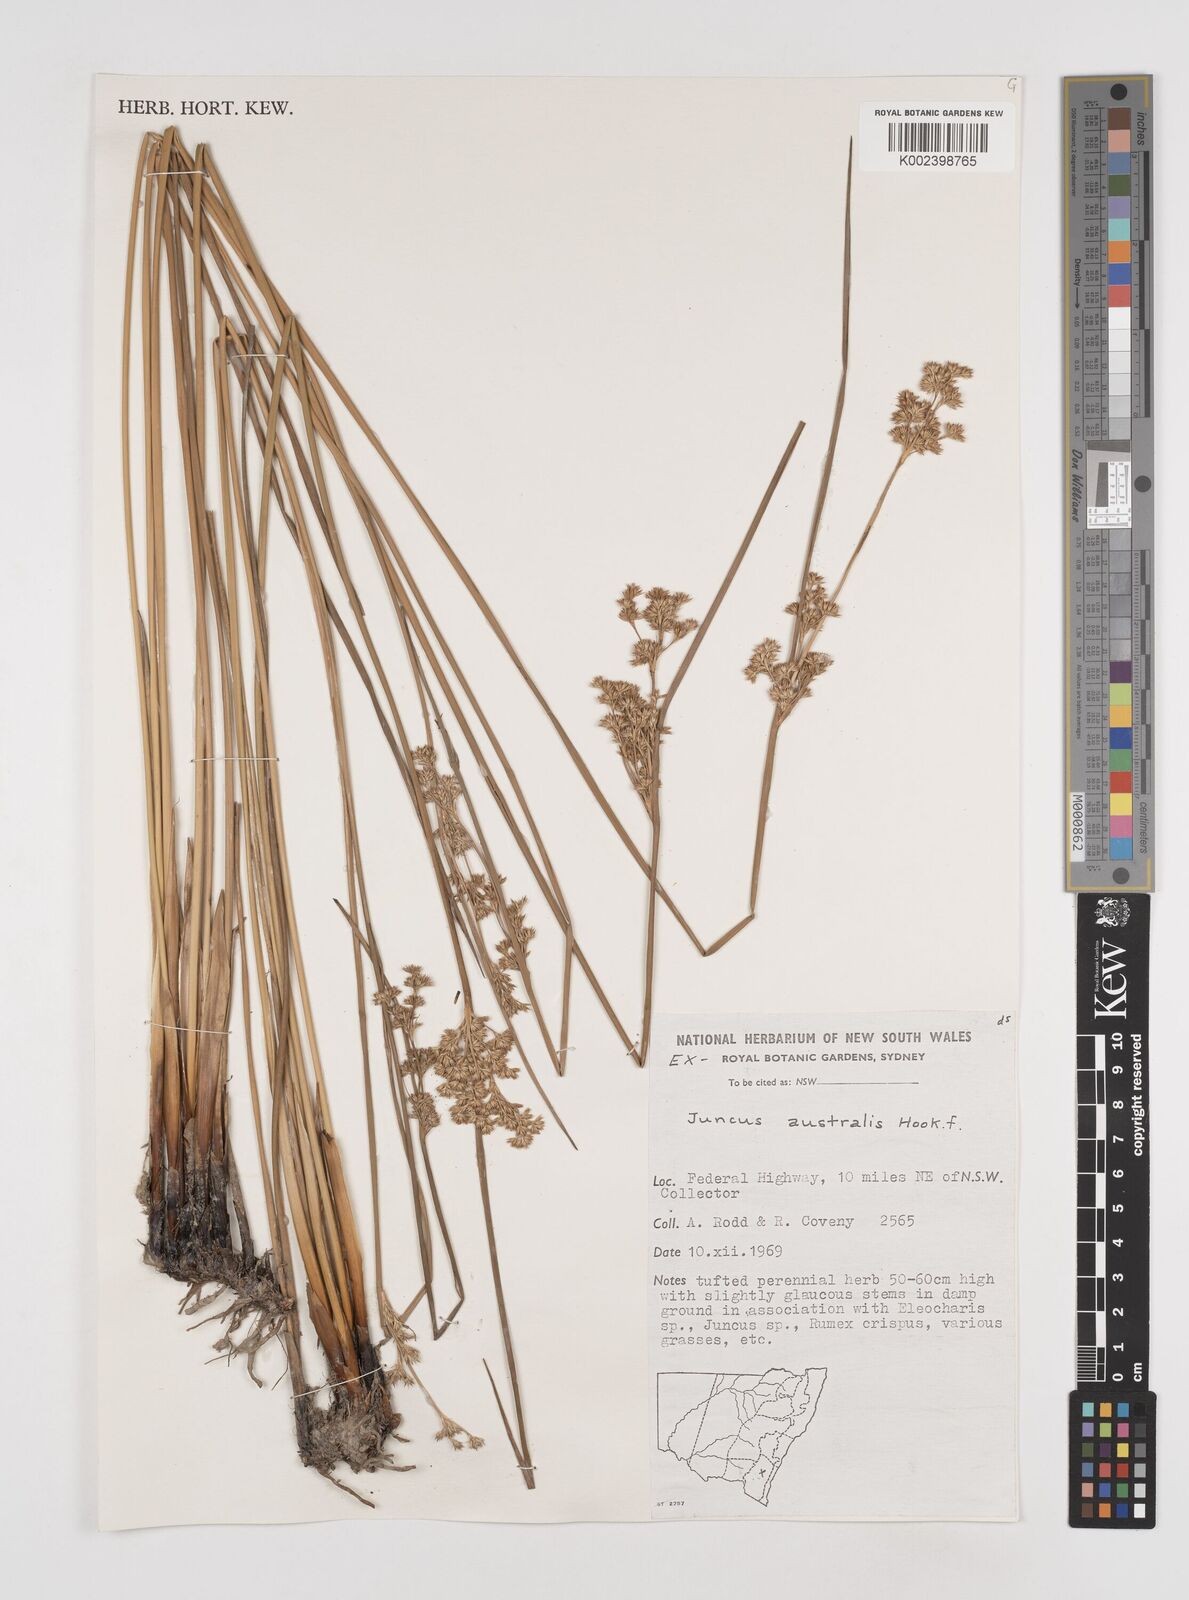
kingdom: Plantae
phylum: Tracheophyta
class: Liliopsida
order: Poales
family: Juncaceae
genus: Juncus
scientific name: Juncus australis
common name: Austral rush
